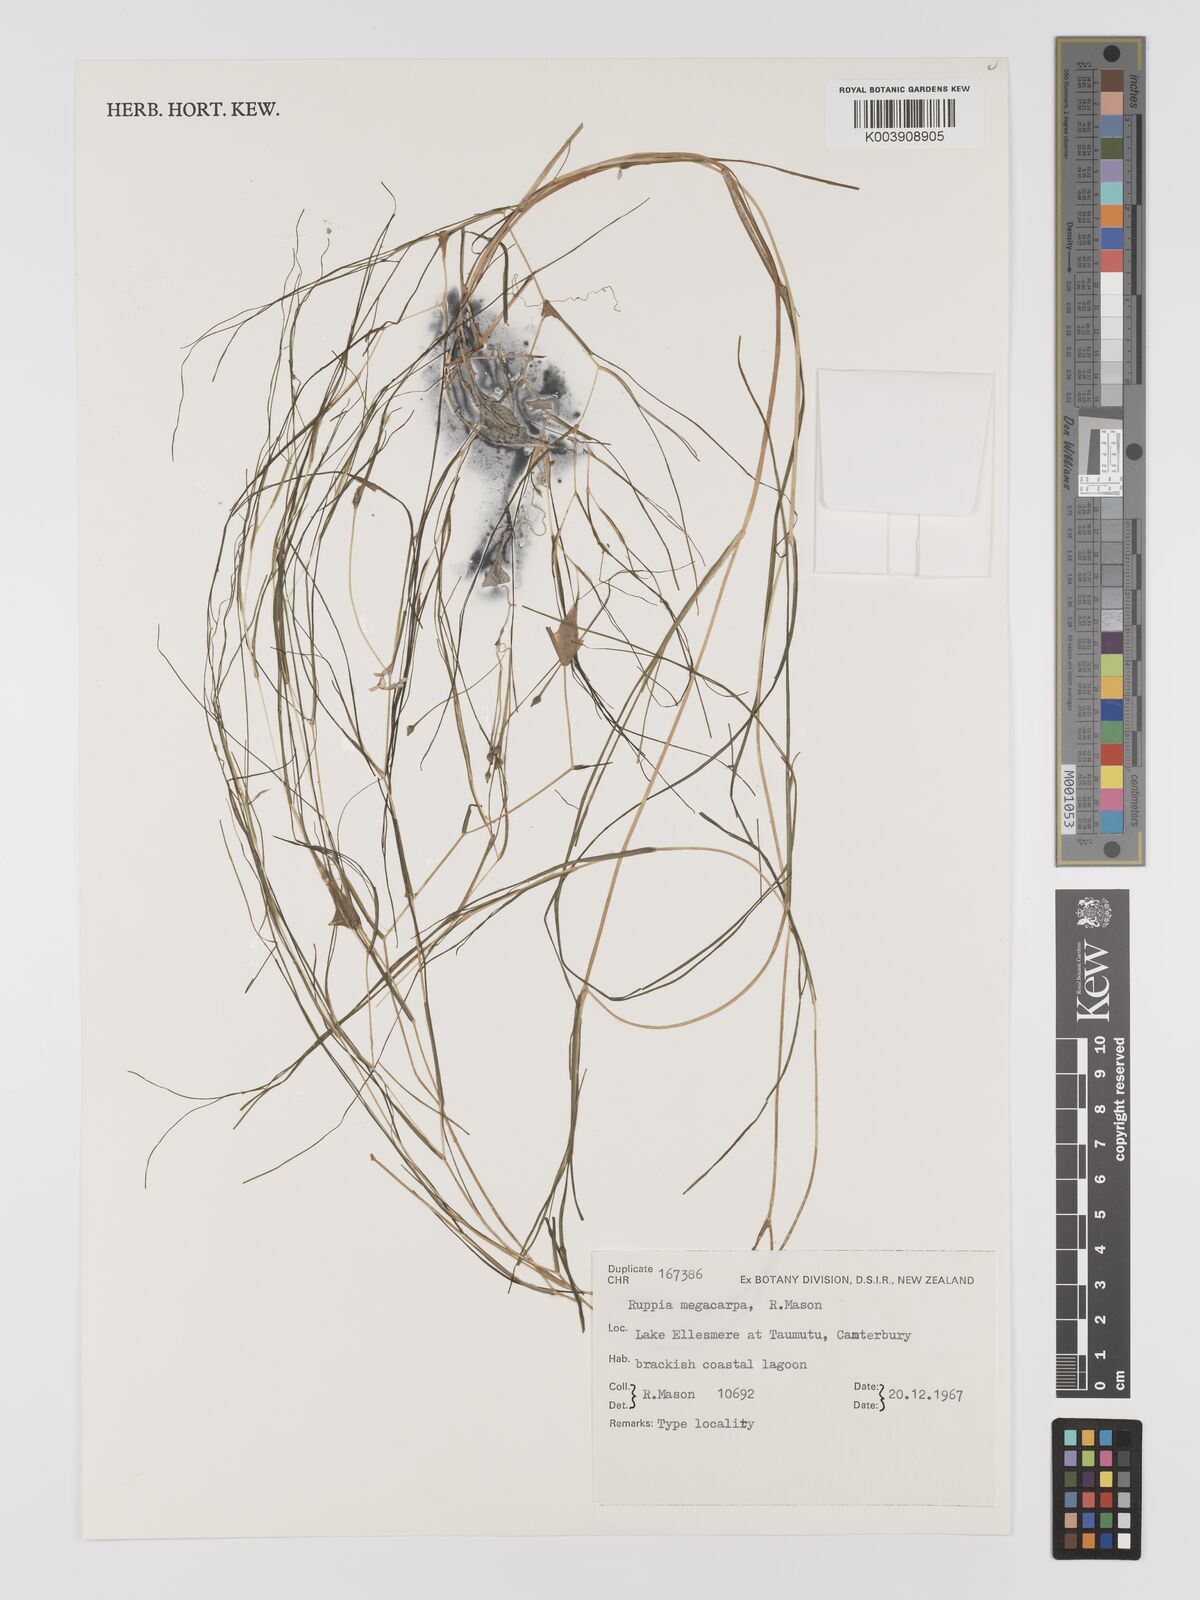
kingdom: Plantae
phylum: Tracheophyta
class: Liliopsida
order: Alismatales
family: Ruppiaceae
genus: Ruppia
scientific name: Ruppia megacarpa
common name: Large-fruit seatassel
